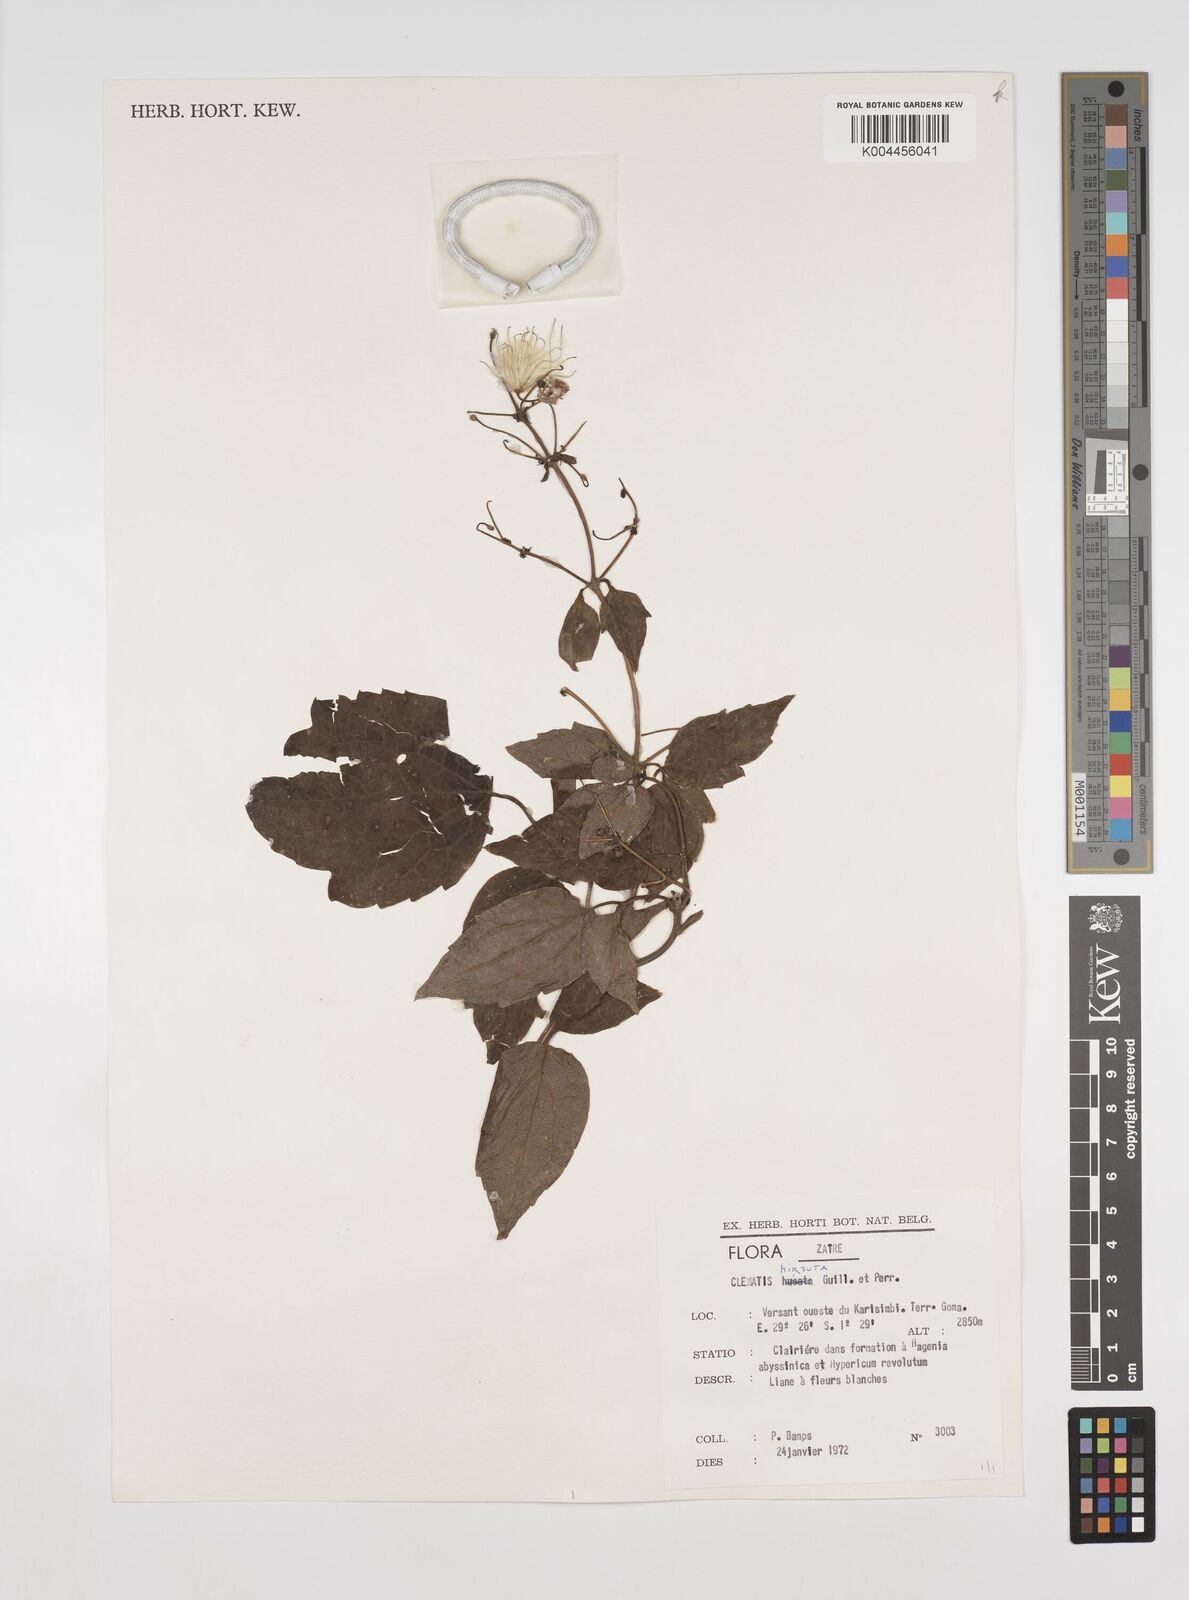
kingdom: Plantae
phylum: Tracheophyta
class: Magnoliopsida
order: Ranunculales
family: Ranunculaceae
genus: Clematis
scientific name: Clematis hirsuta
